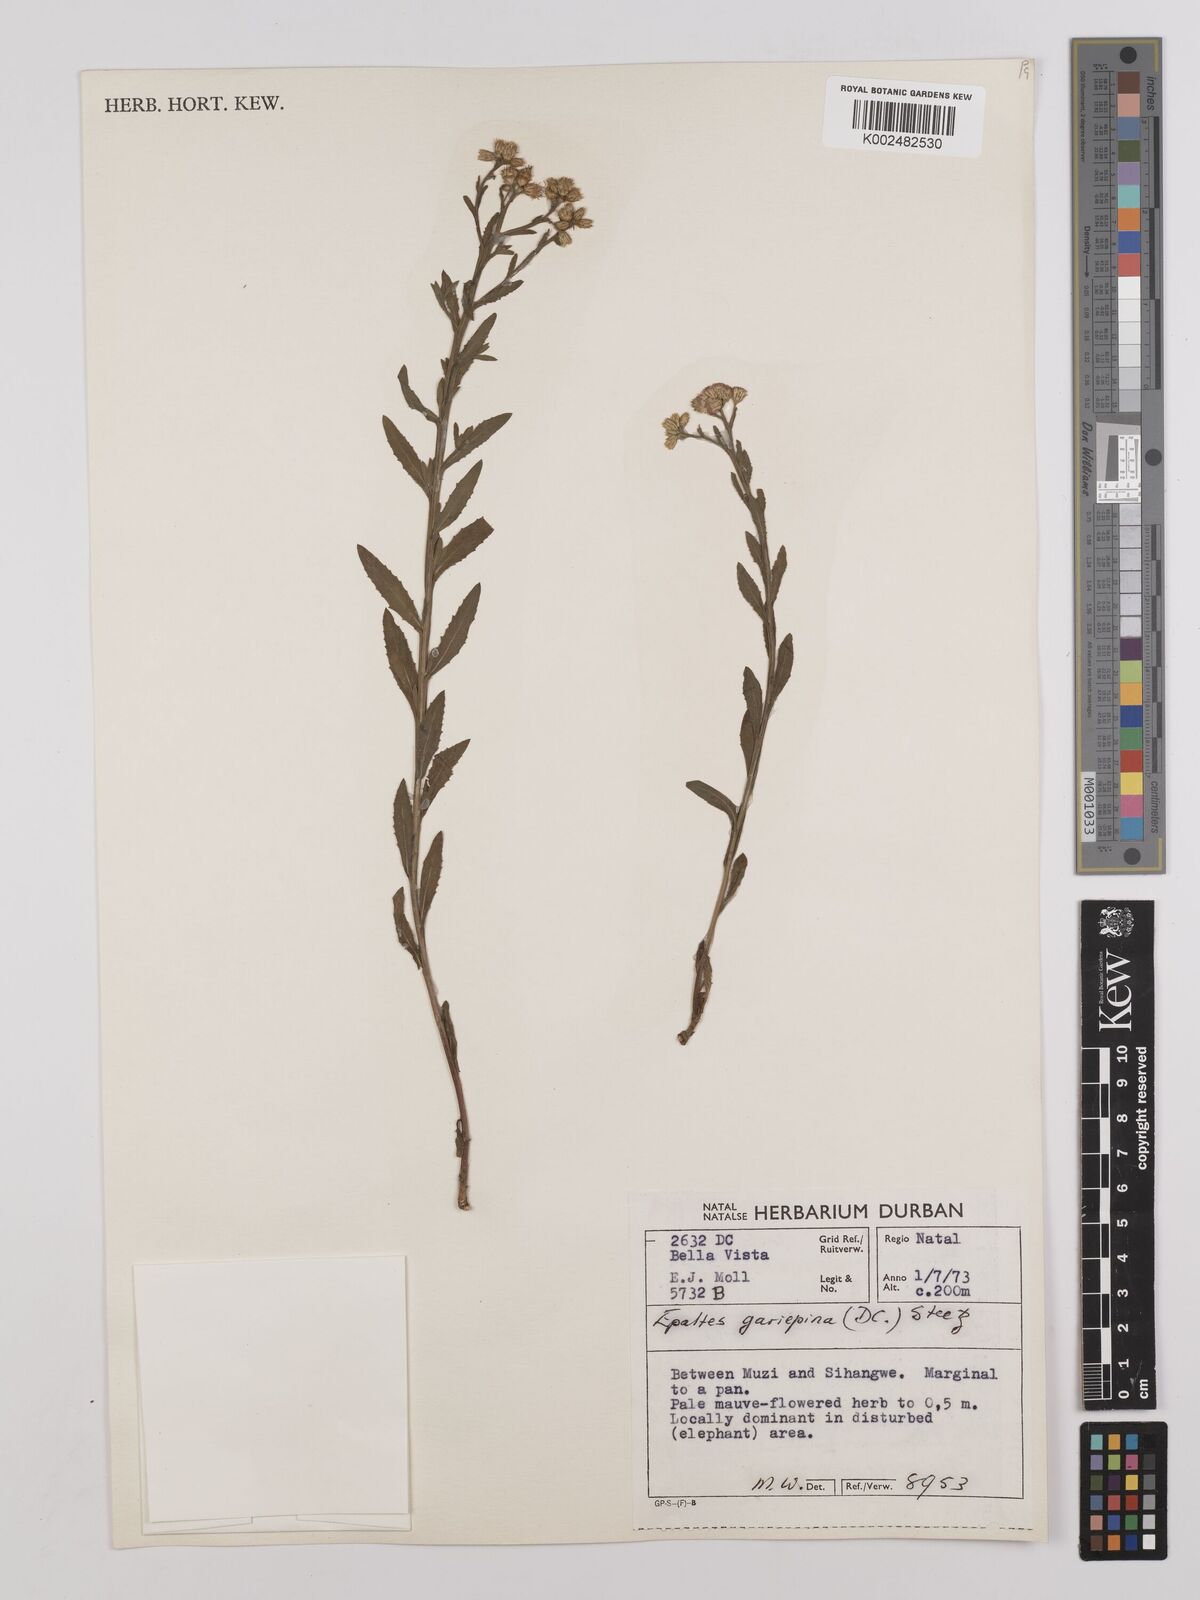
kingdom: Plantae
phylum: Tracheophyta
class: Magnoliopsida
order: Asterales
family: Asteraceae
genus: Litogyne
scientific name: Litogyne gariepina
